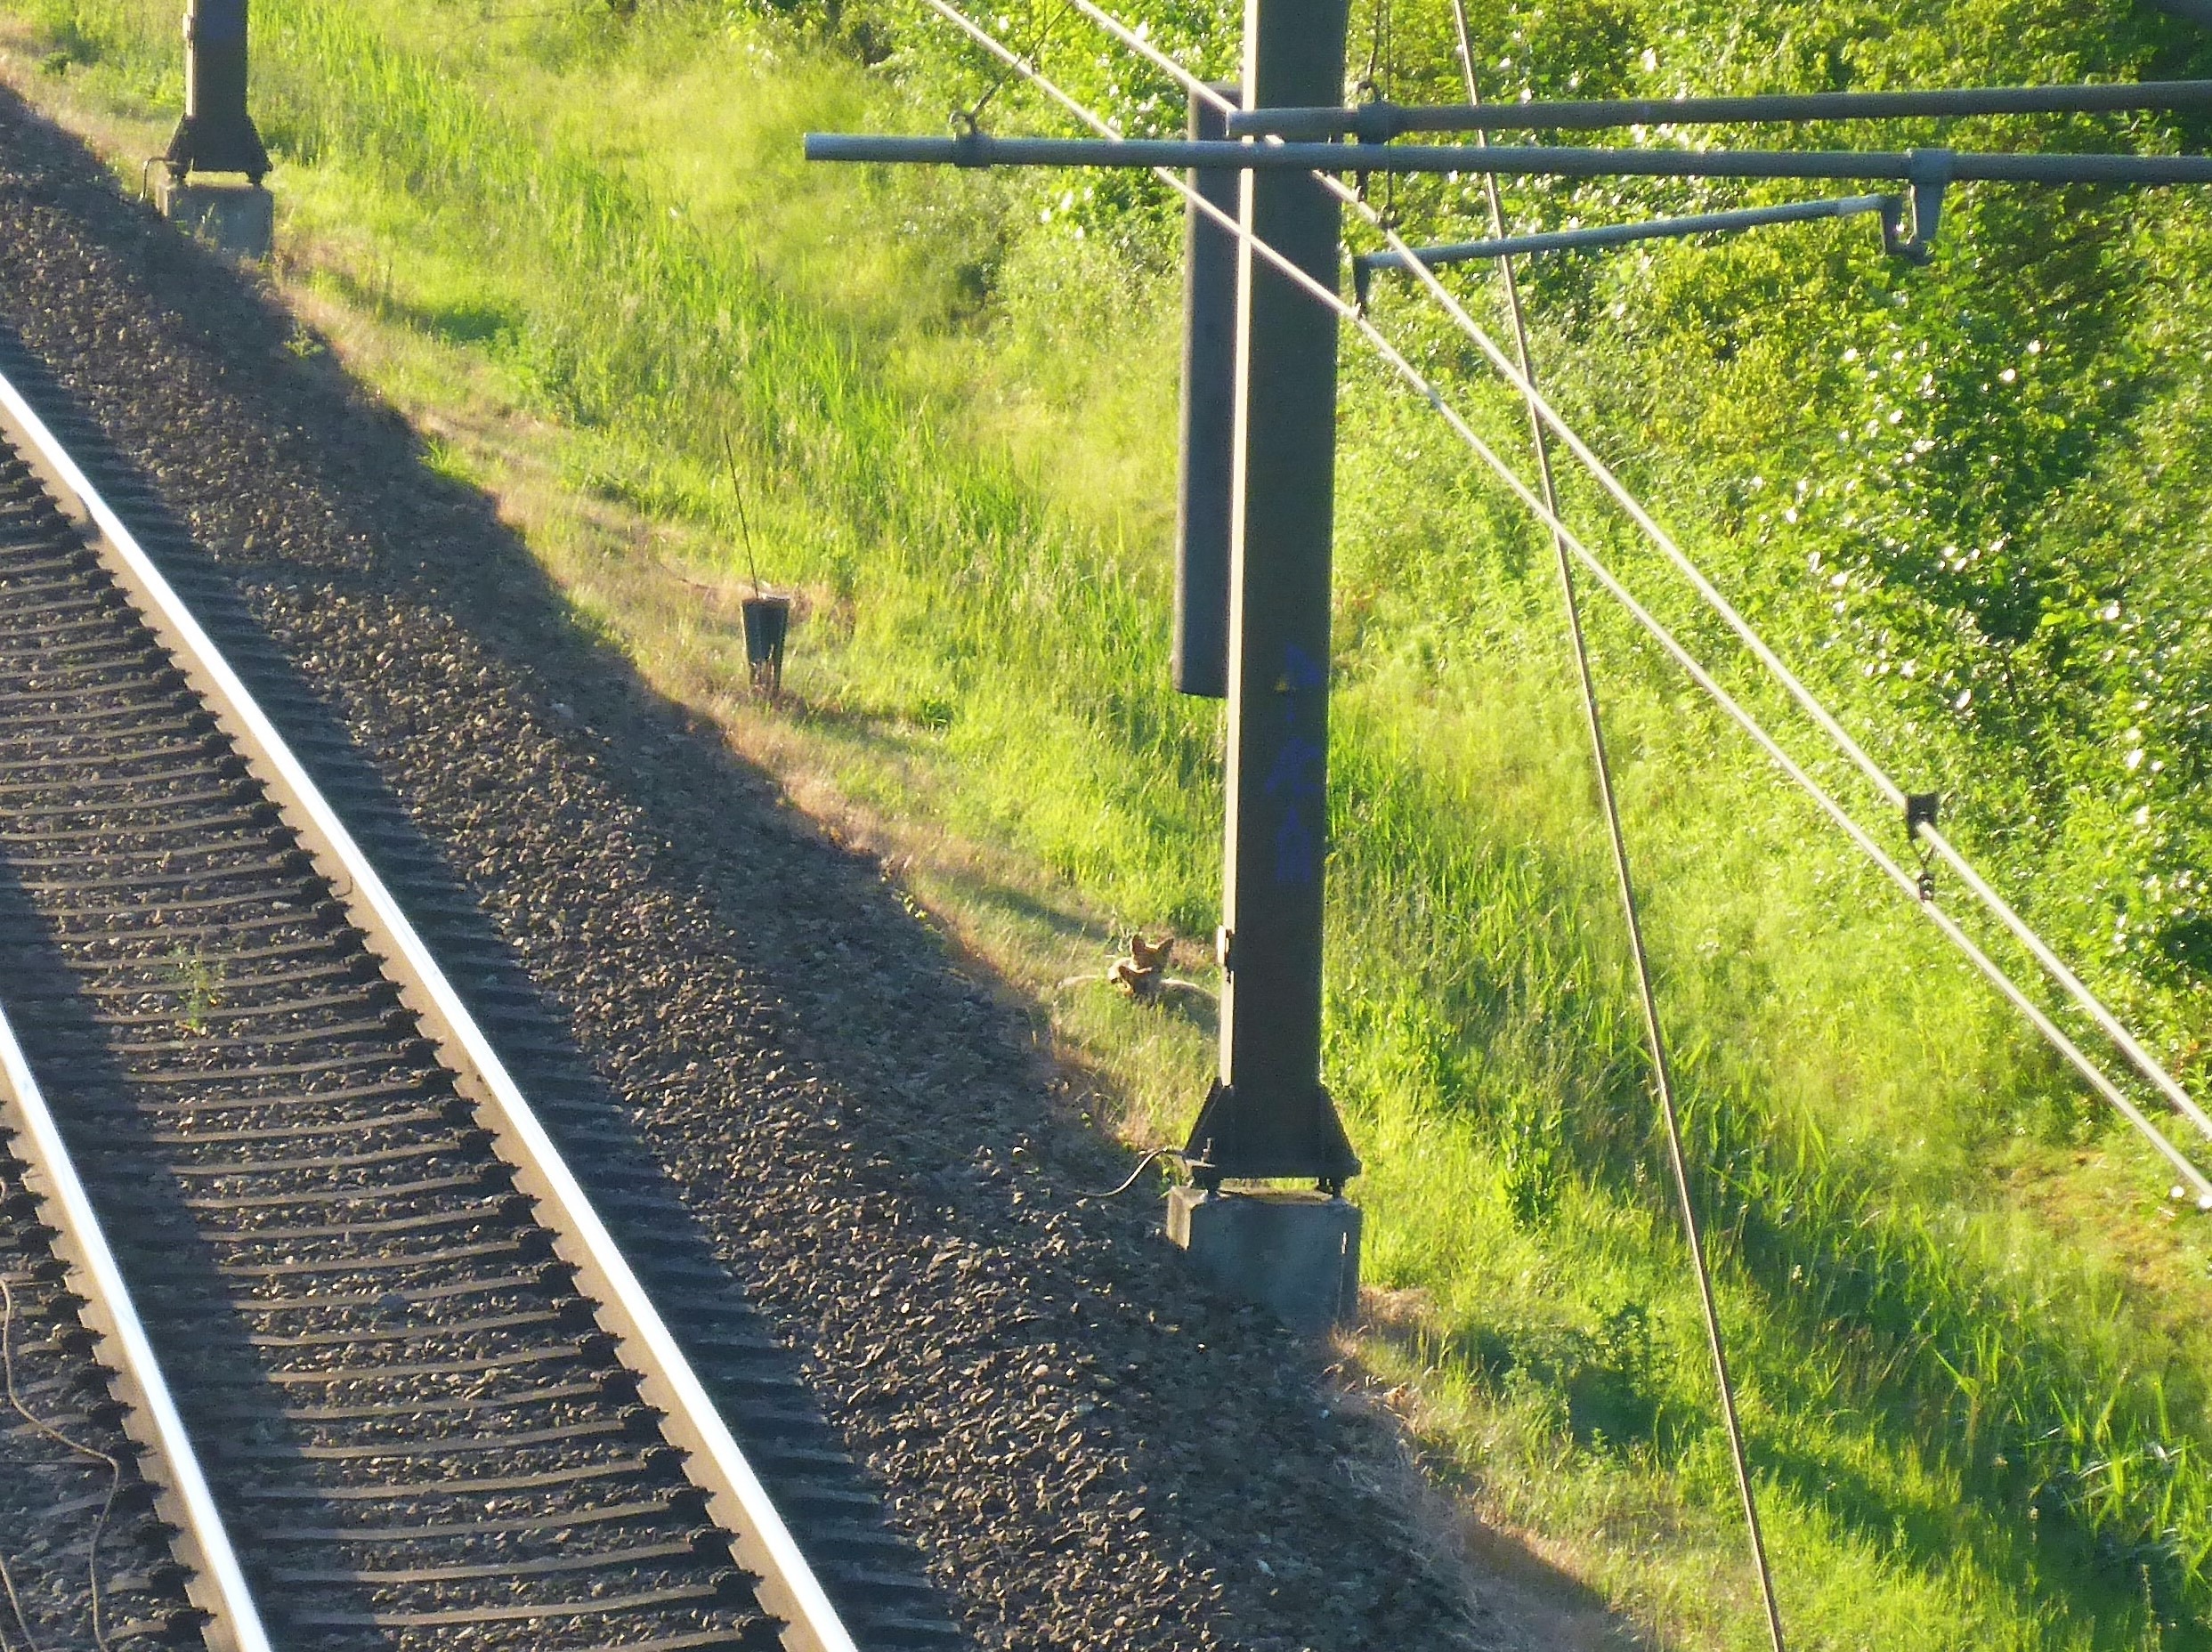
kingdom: Animalia
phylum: Chordata
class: Mammalia
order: Carnivora
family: Canidae
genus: Vulpes
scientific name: Vulpes vulpes
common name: Ræv
